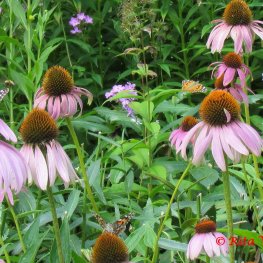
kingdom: Animalia
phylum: Arthropoda
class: Insecta
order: Lepidoptera
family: Nymphalidae
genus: Vanessa
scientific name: Vanessa cardui
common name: Painted Lady
